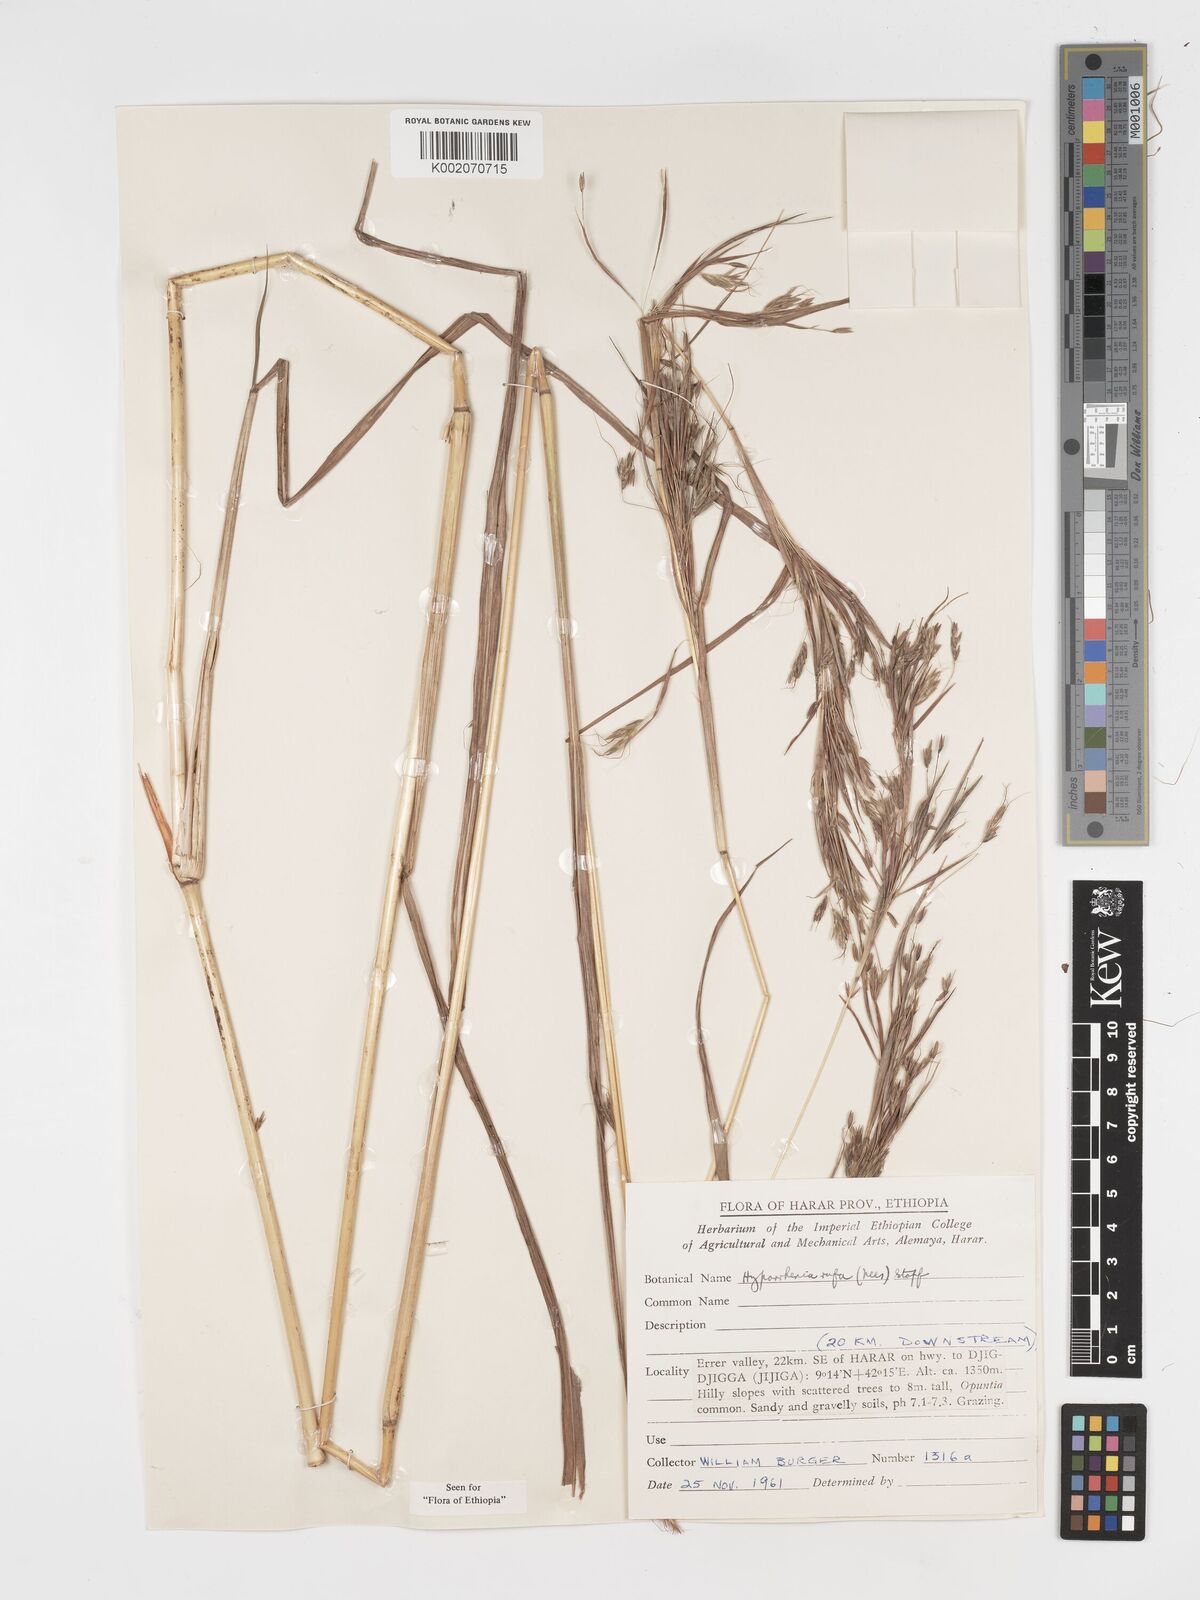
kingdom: Plantae
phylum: Tracheophyta
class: Liliopsida
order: Poales
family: Poaceae
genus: Hyparrhenia
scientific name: Hyparrhenia rufa
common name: Jaraguagrass
